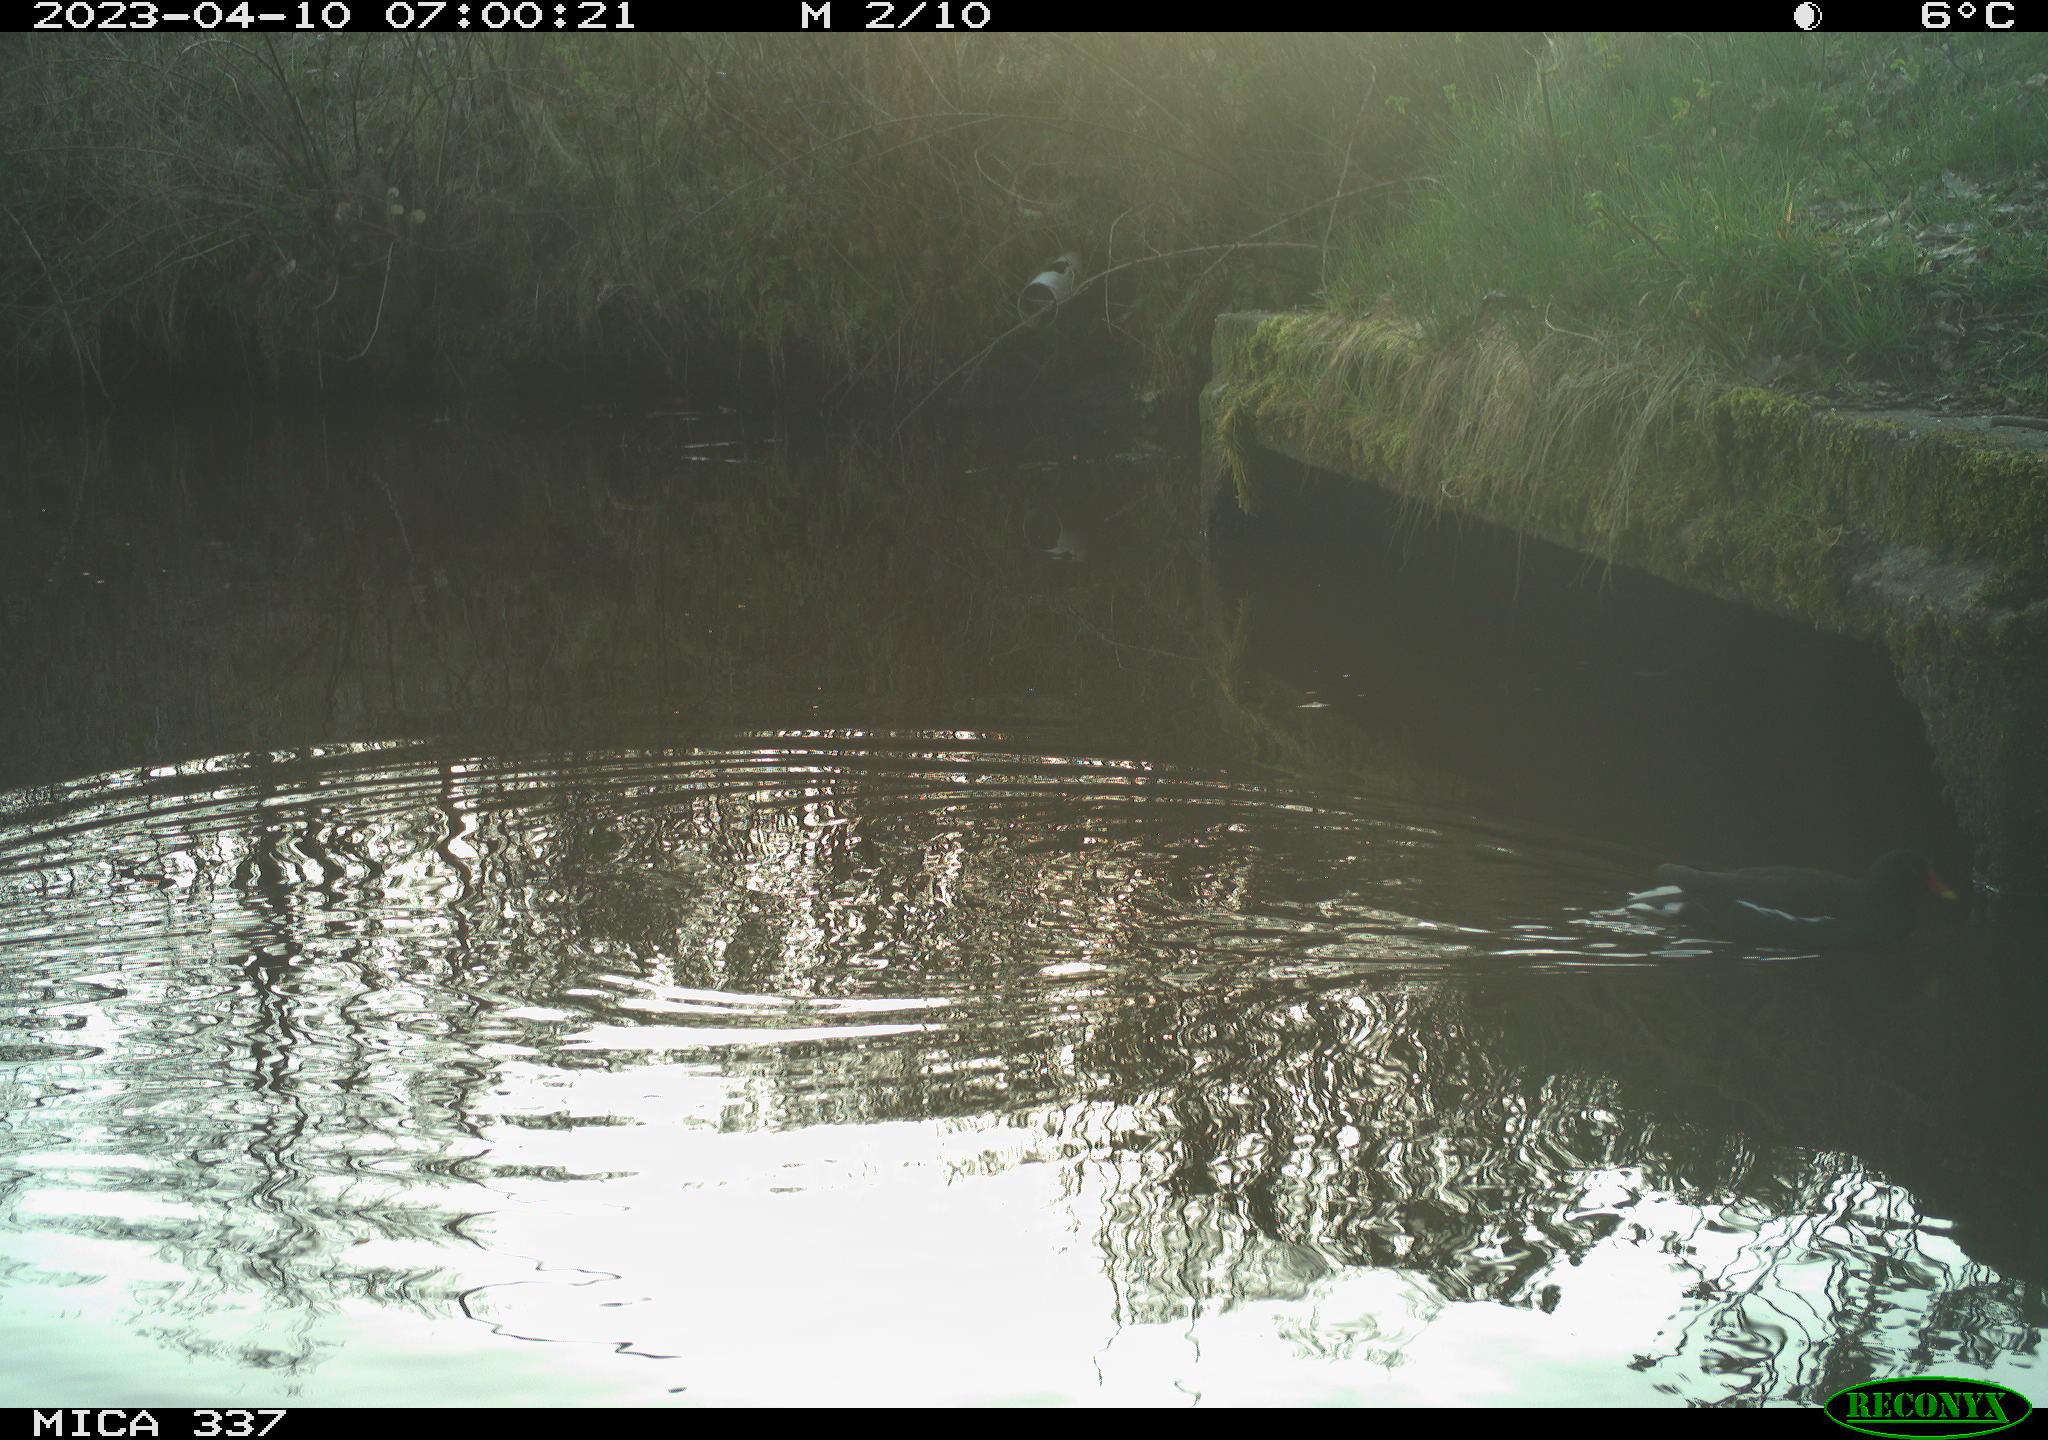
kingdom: Animalia
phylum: Chordata
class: Aves
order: Gruiformes
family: Rallidae
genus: Gallinula
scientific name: Gallinula chloropus
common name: Common moorhen
